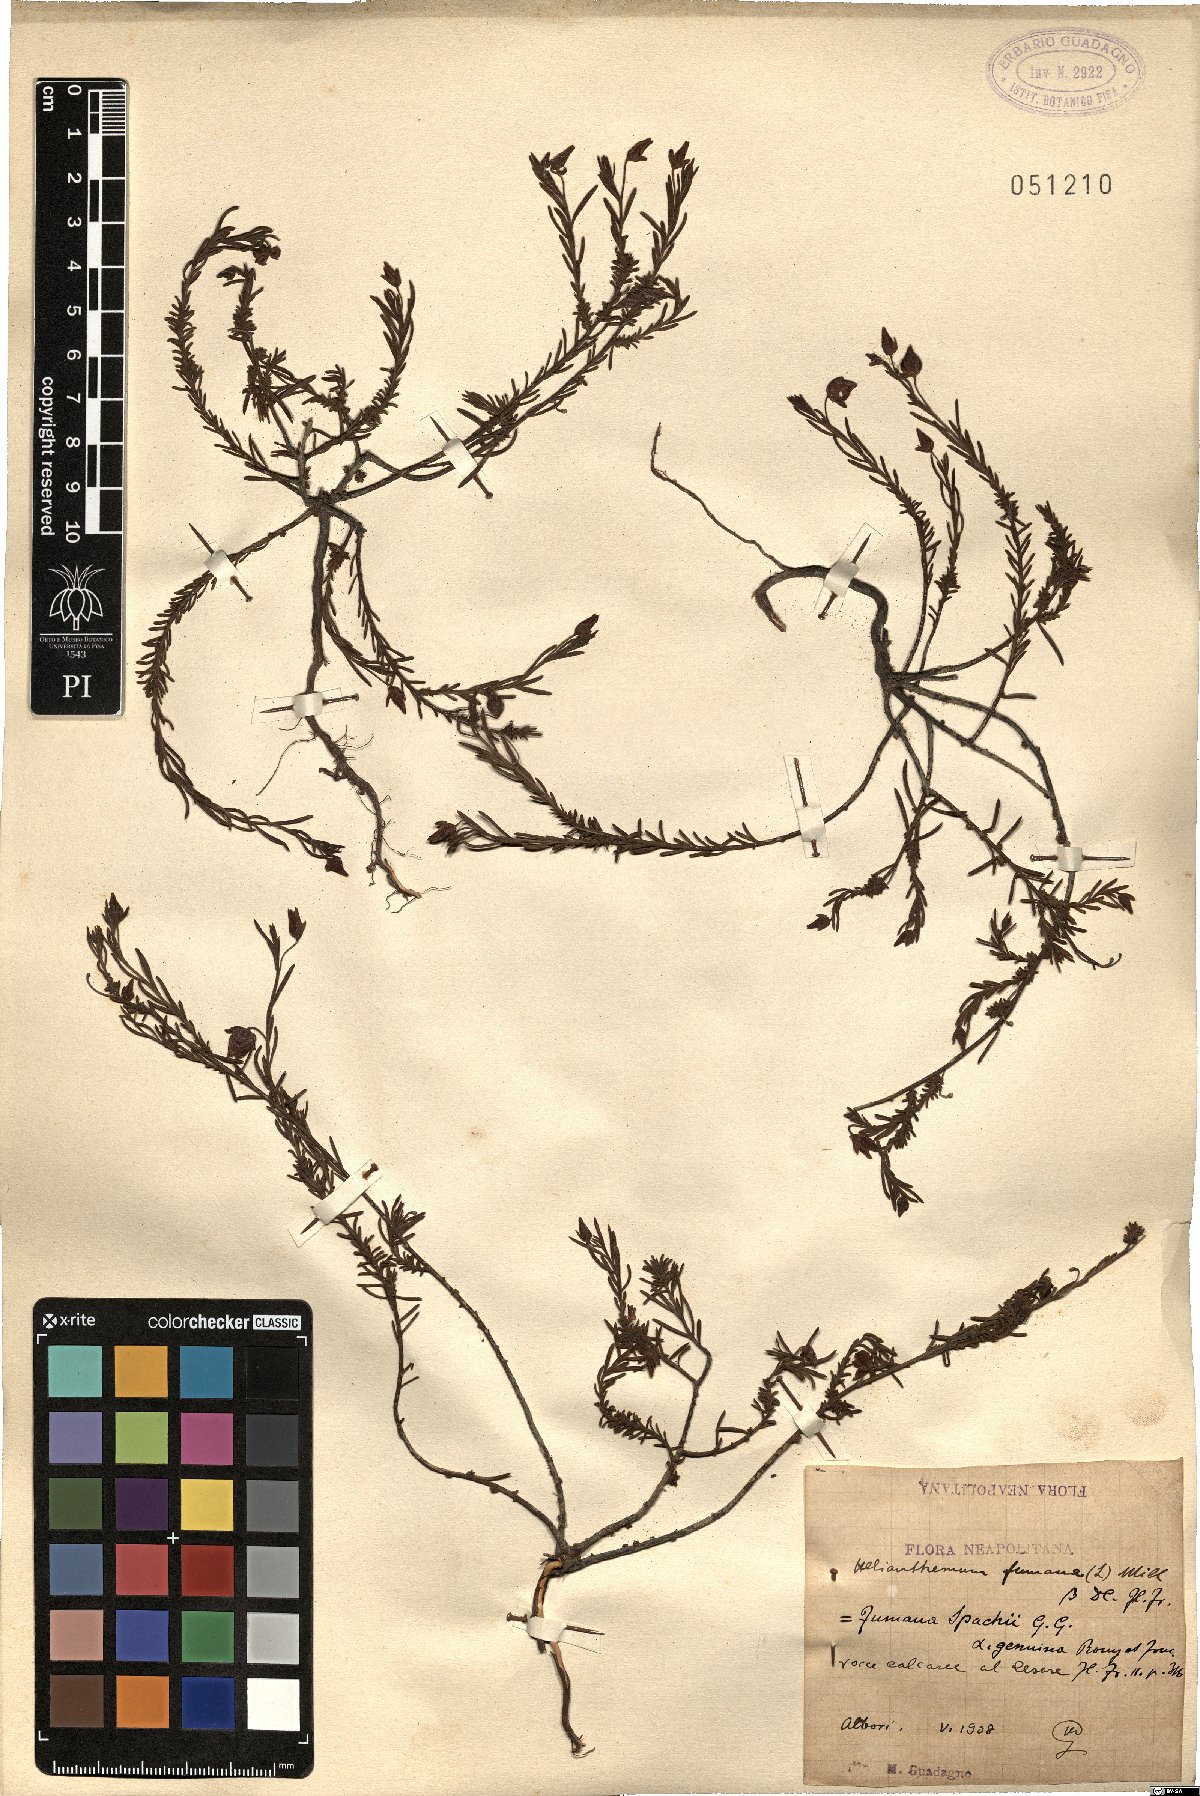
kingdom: Plantae
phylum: Tracheophyta
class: Magnoliopsida
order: Malvales
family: Cistaceae
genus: Fumana
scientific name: Fumana procumbens
